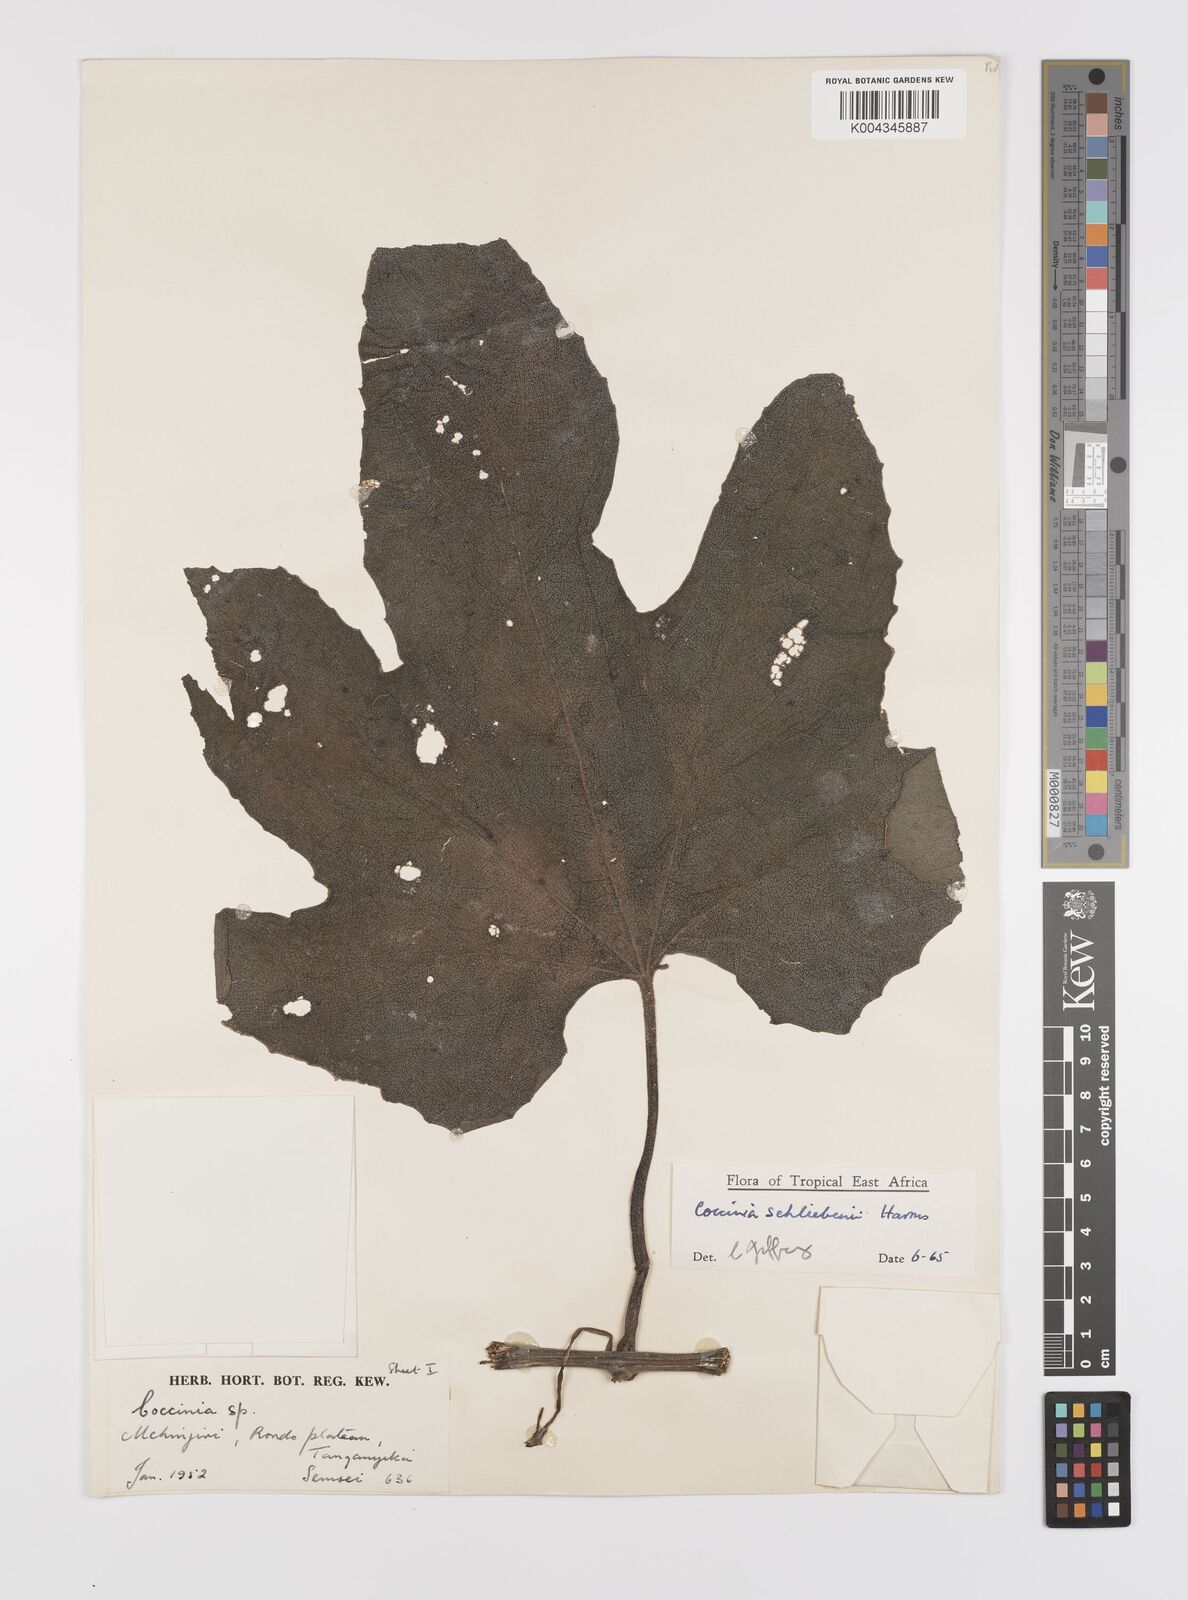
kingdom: Plantae
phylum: Tracheophyta
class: Magnoliopsida
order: Cucurbitales
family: Cucurbitaceae
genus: Coccinia
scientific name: Coccinia schliebenii
